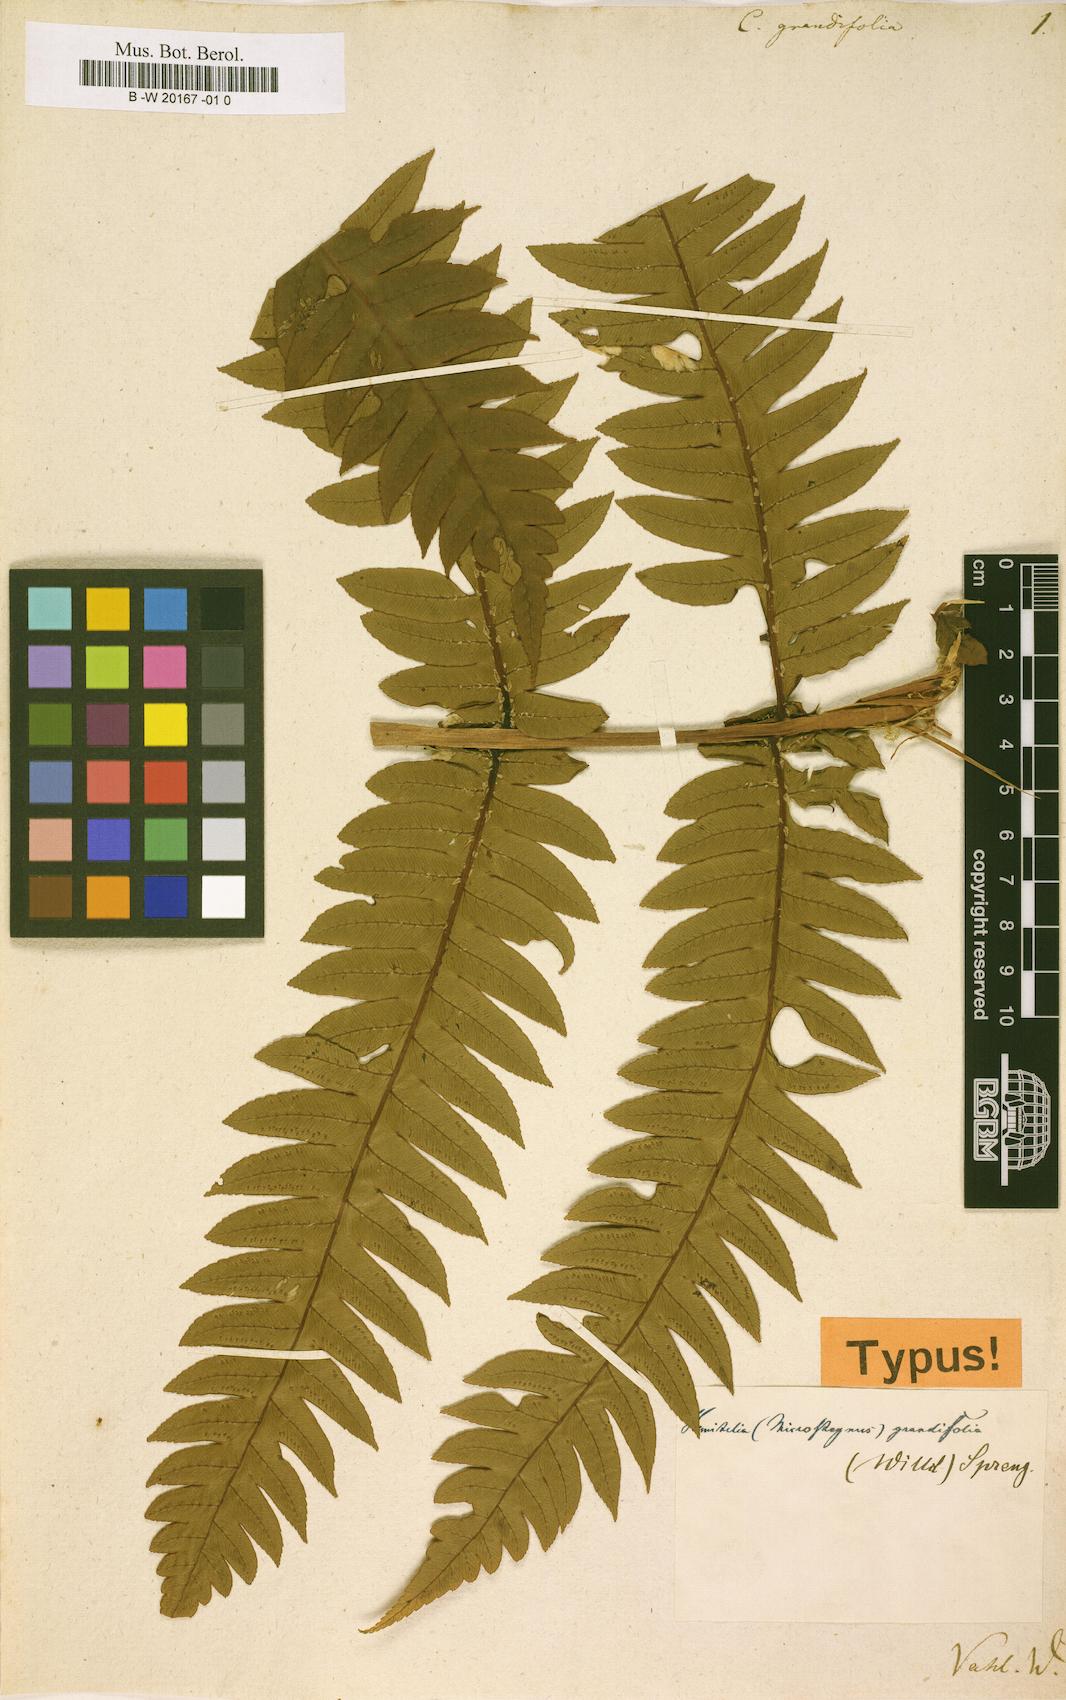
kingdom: Plantae
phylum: Tracheophyta
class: Polypodiopsida
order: Cyatheales
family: Cyatheaceae
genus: Cyathea
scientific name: Cyathea grandifolia
